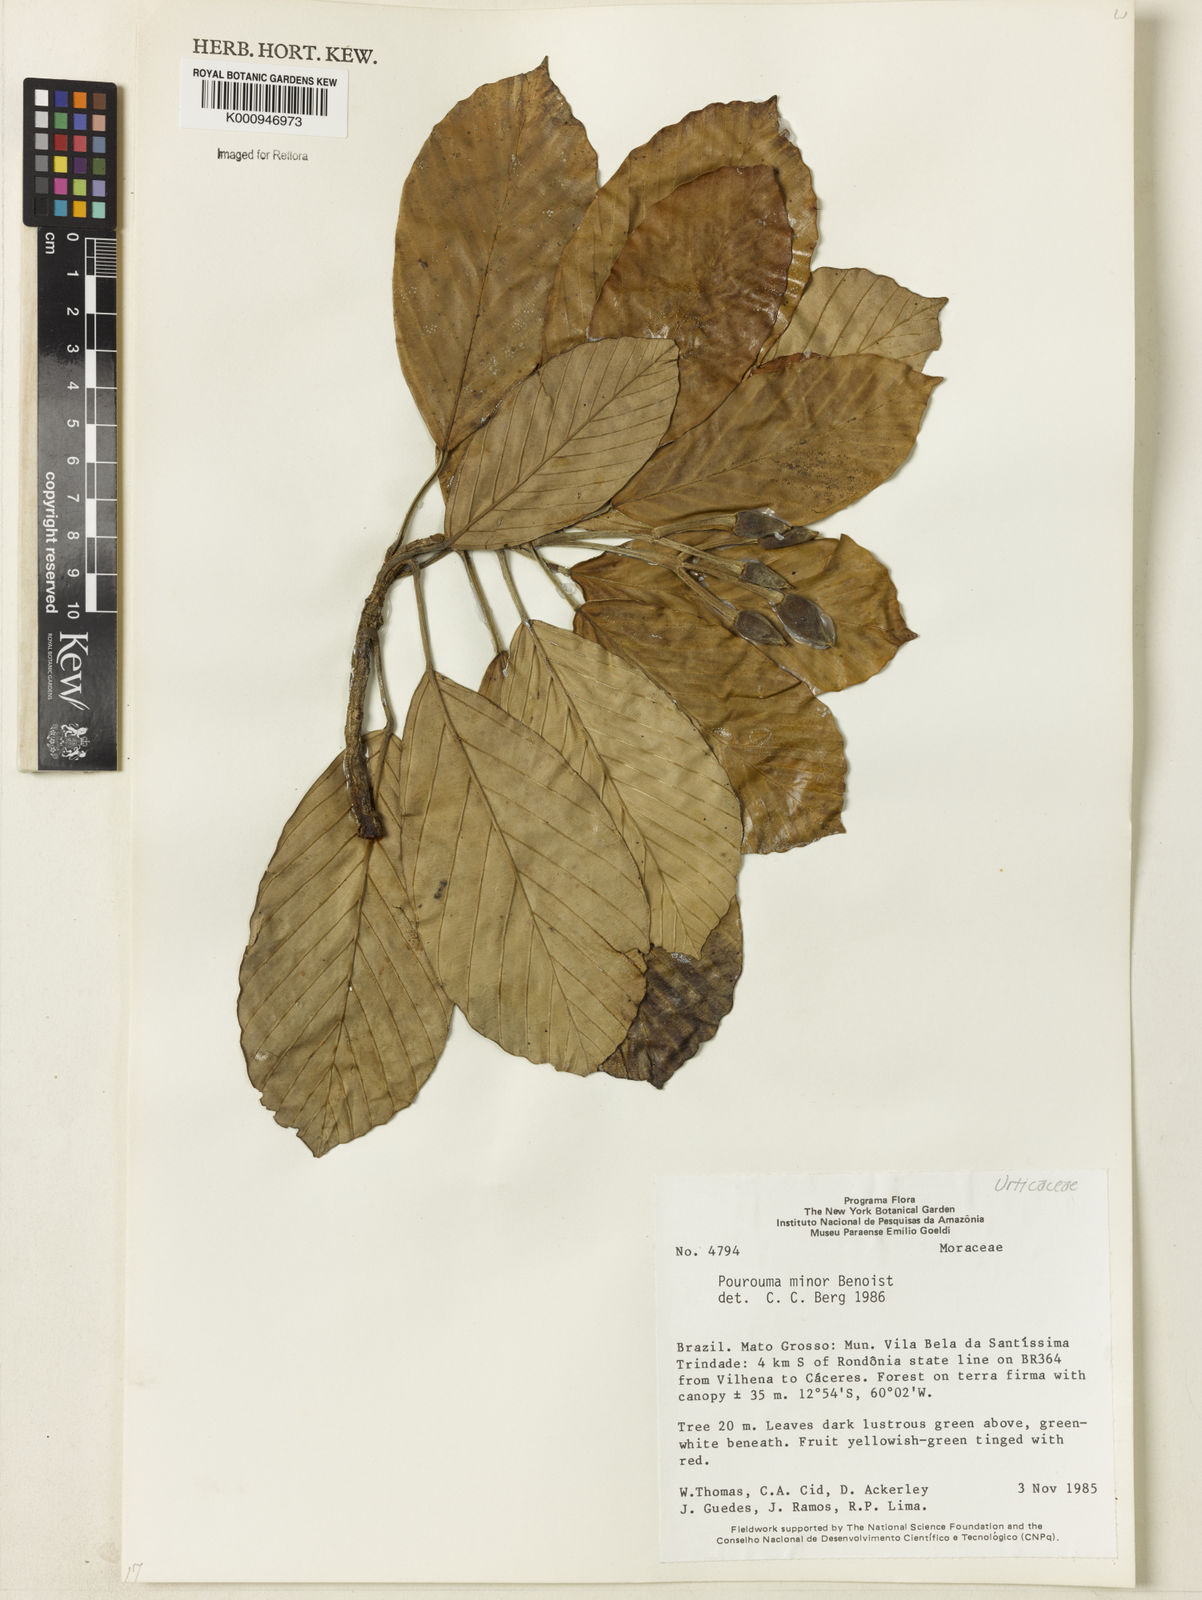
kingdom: Plantae
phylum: Tracheophyta
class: Magnoliopsida
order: Rosales
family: Urticaceae
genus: Pourouma
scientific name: Pourouma minor
